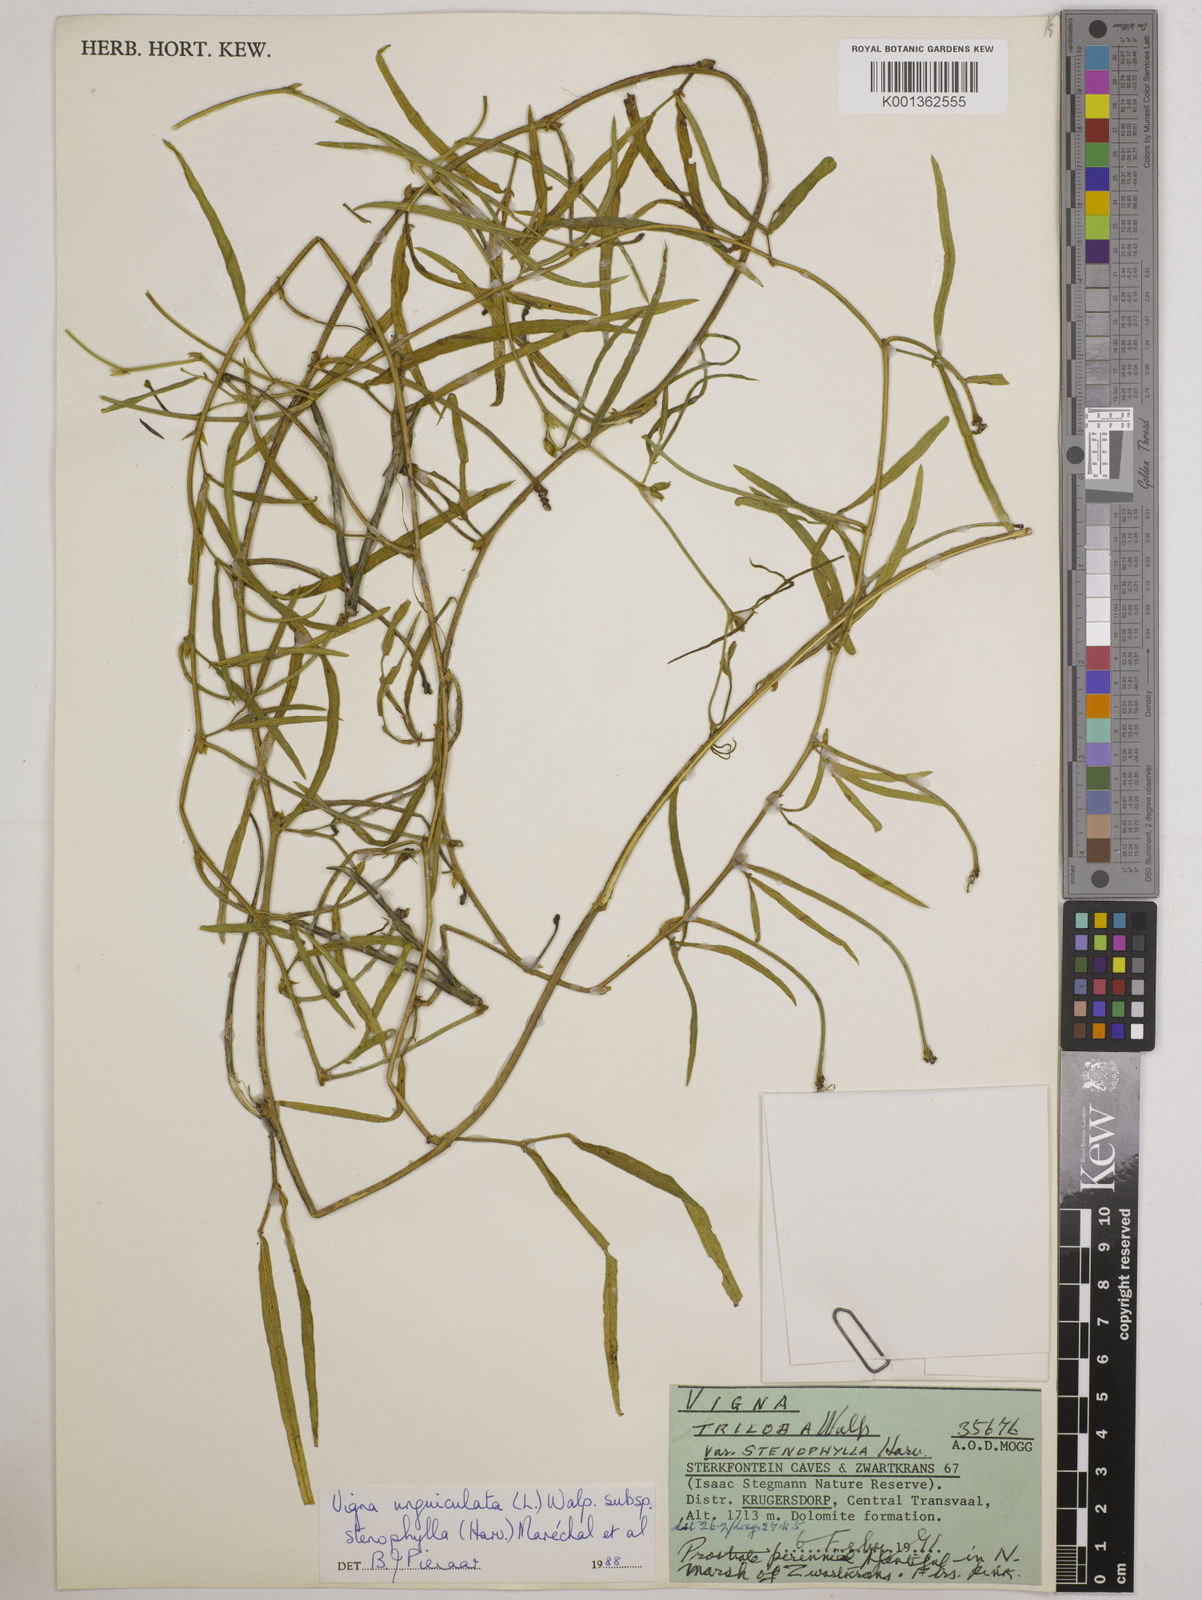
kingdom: Plantae
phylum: Tracheophyta
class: Magnoliopsida
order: Fabales
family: Fabaceae
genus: Vigna
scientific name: Vigna
